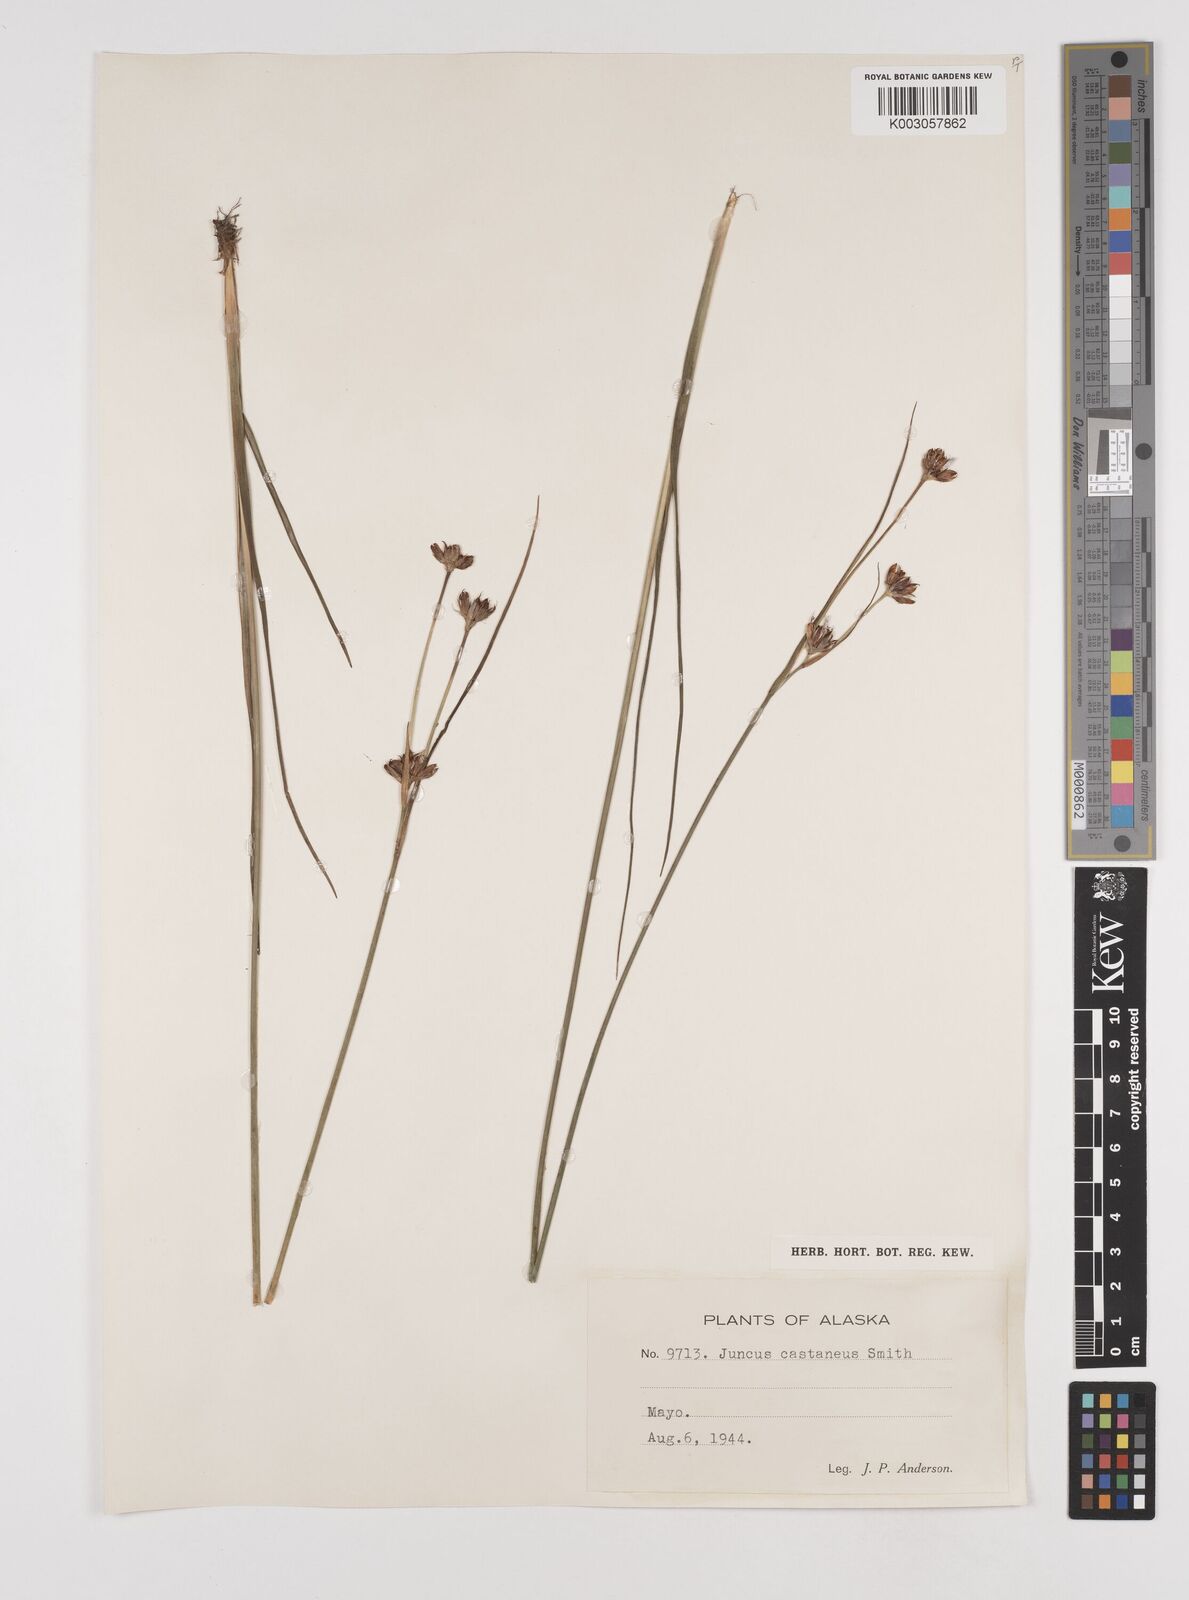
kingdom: Plantae
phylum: Tracheophyta
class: Liliopsida
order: Poales
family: Juncaceae
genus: Juncus
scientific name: Juncus castaneus
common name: Chestnut rush
